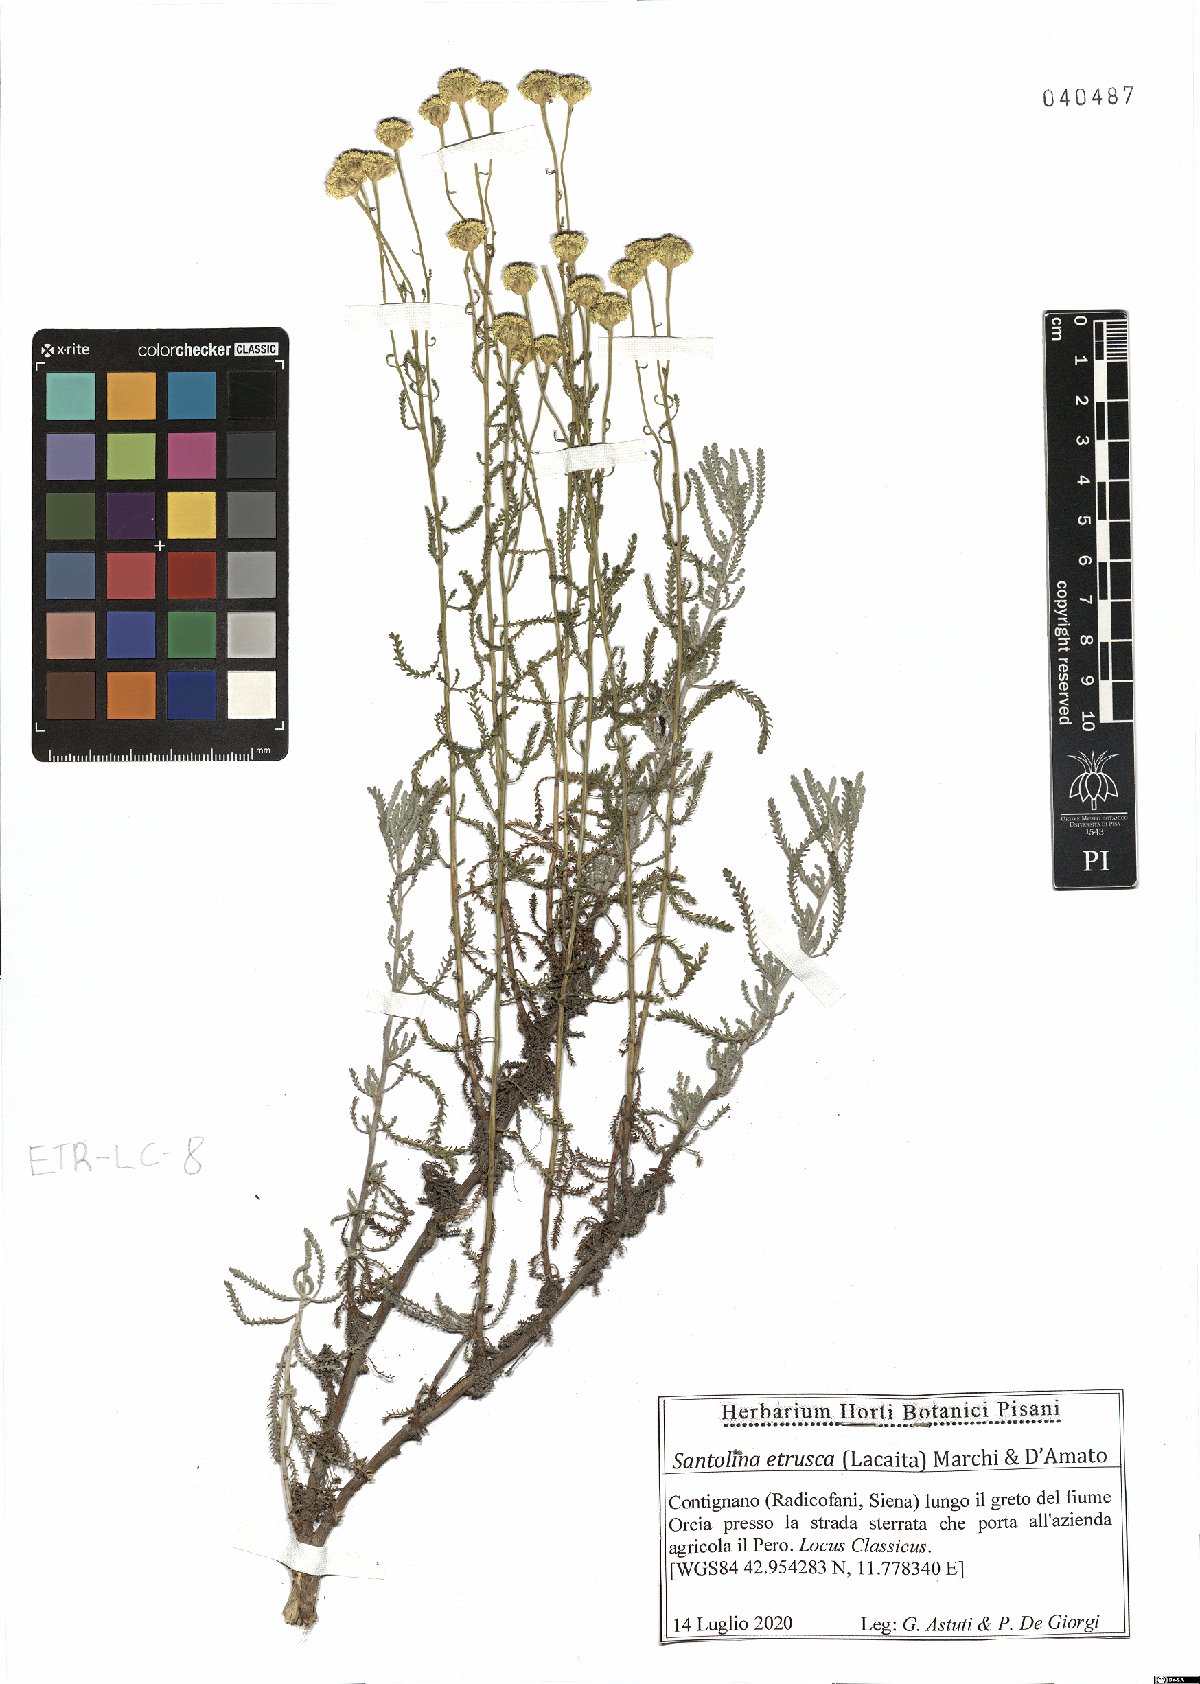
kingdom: Plantae
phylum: Tracheophyta
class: Magnoliopsida
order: Asterales
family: Asteraceae
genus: Santolina
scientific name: Santolina etrusca
